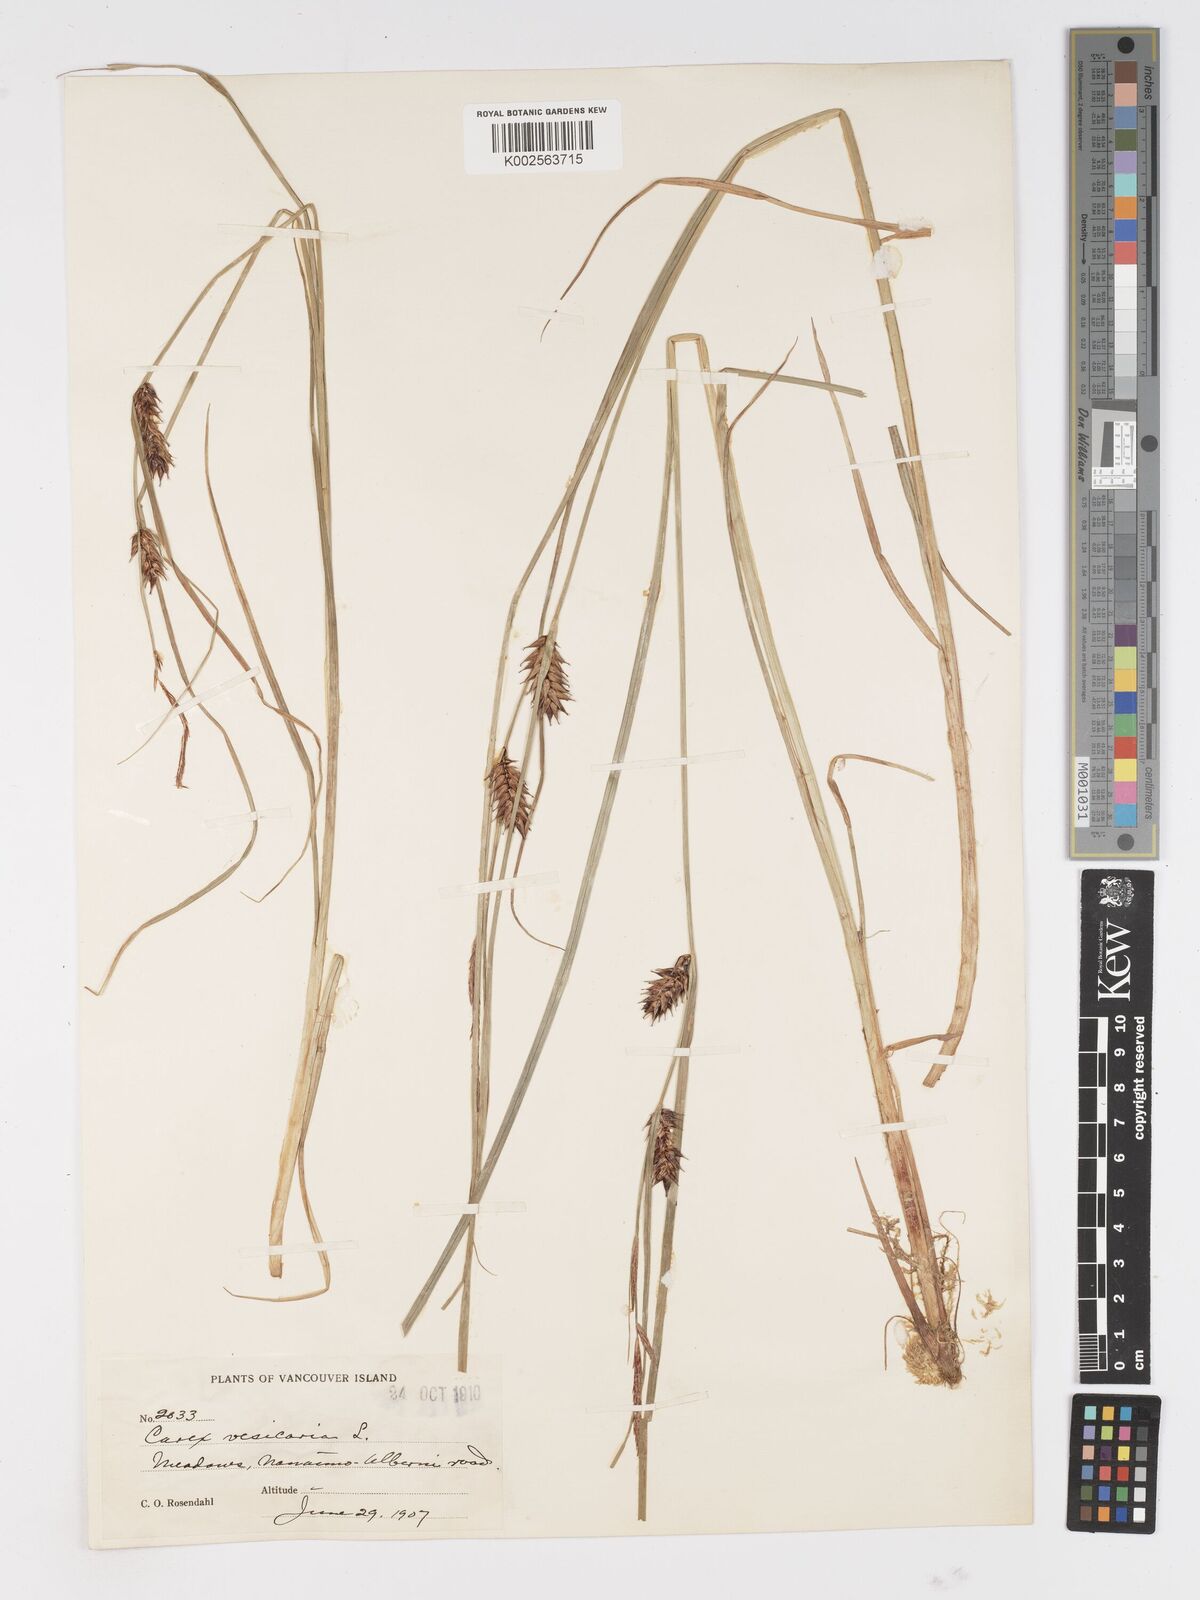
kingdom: Plantae
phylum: Tracheophyta
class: Liliopsida
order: Poales
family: Cyperaceae
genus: Carex
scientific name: Carex vesicaria
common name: Bladder-sedge
